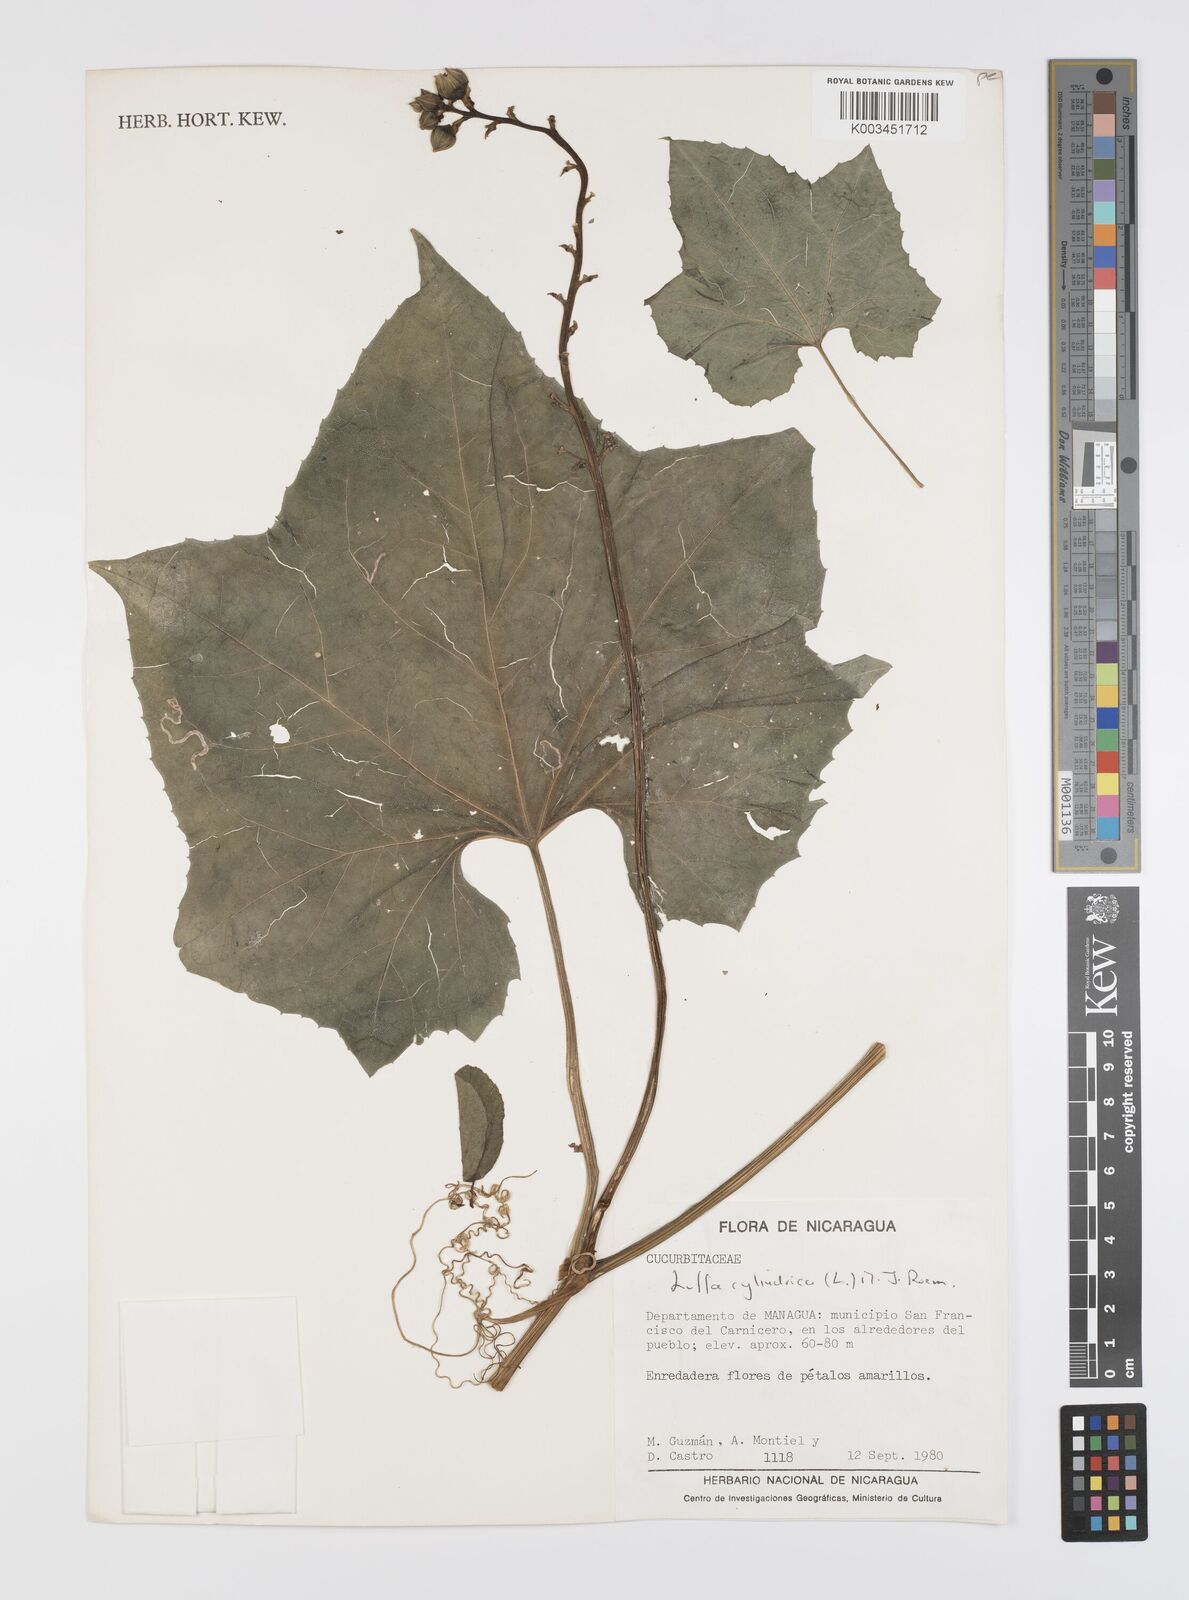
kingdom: Plantae
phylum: Tracheophyta
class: Magnoliopsida
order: Cucurbitales
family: Cucurbitaceae
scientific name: Cucurbitaceae
